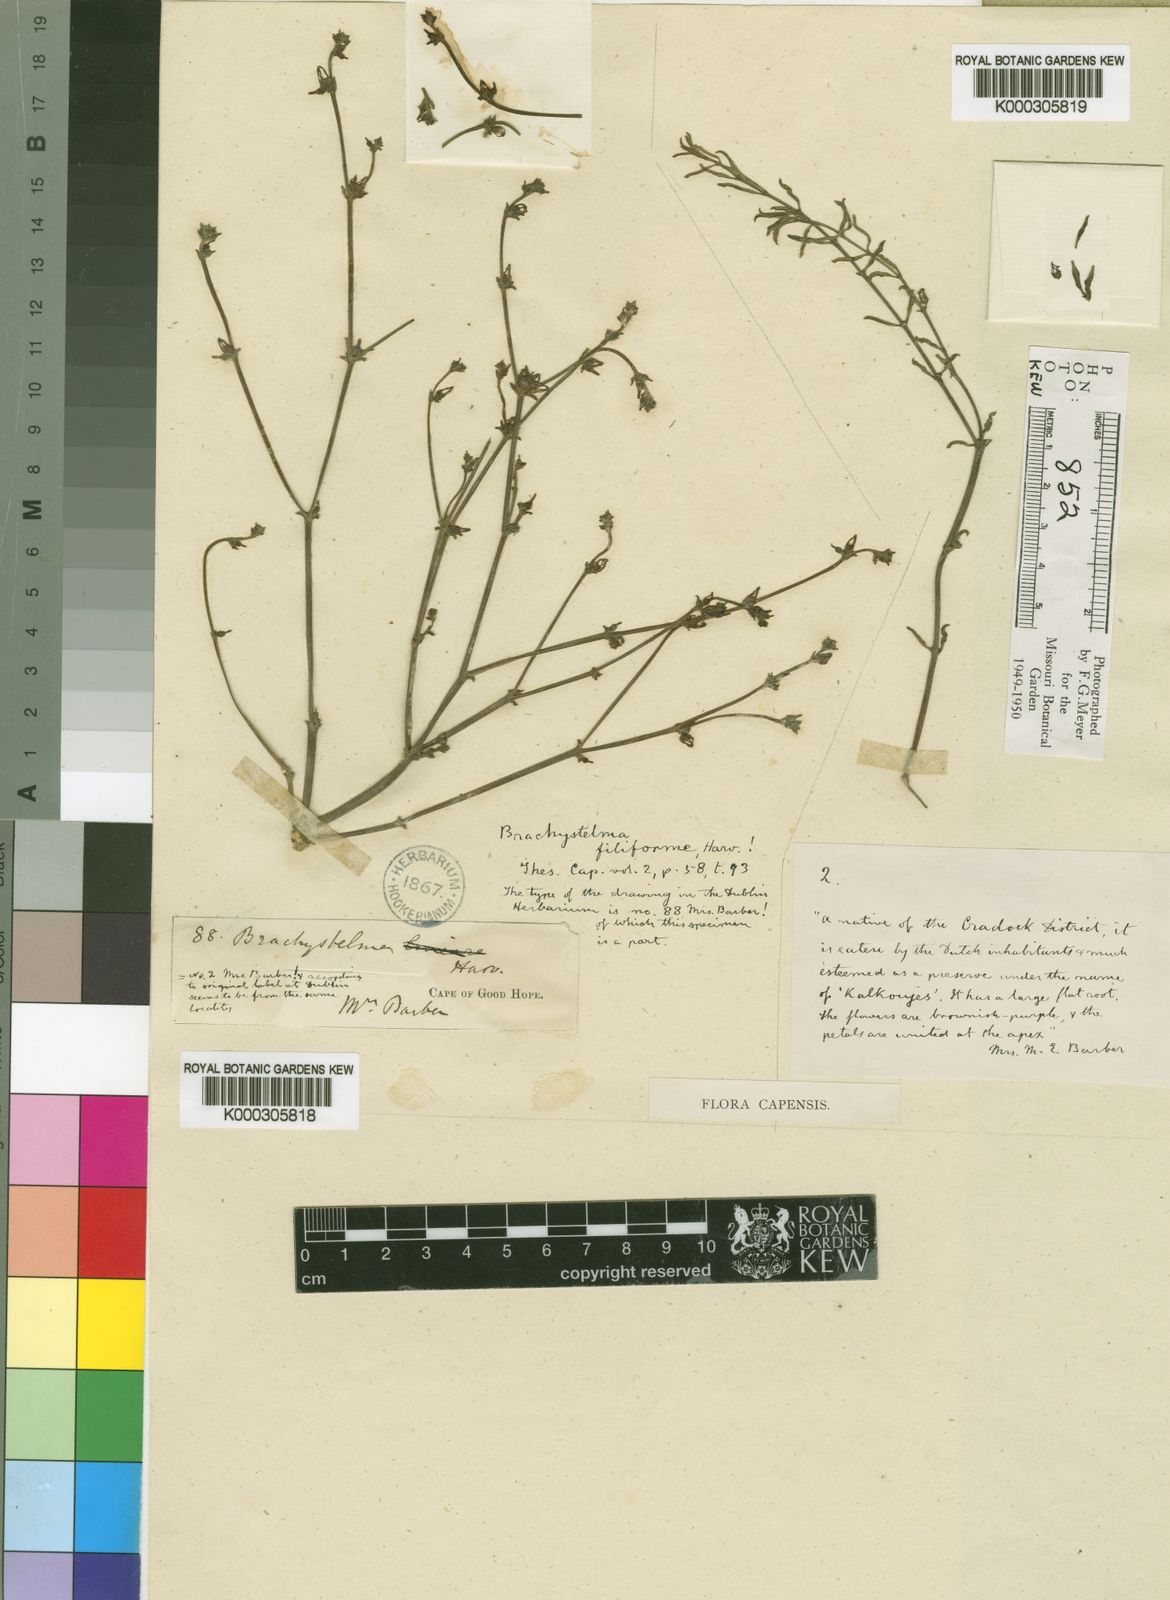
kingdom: Plantae
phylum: Tracheophyta
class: Magnoliopsida
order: Gentianales
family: Apocynaceae
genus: Ceropegia
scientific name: Ceropegia circinata
